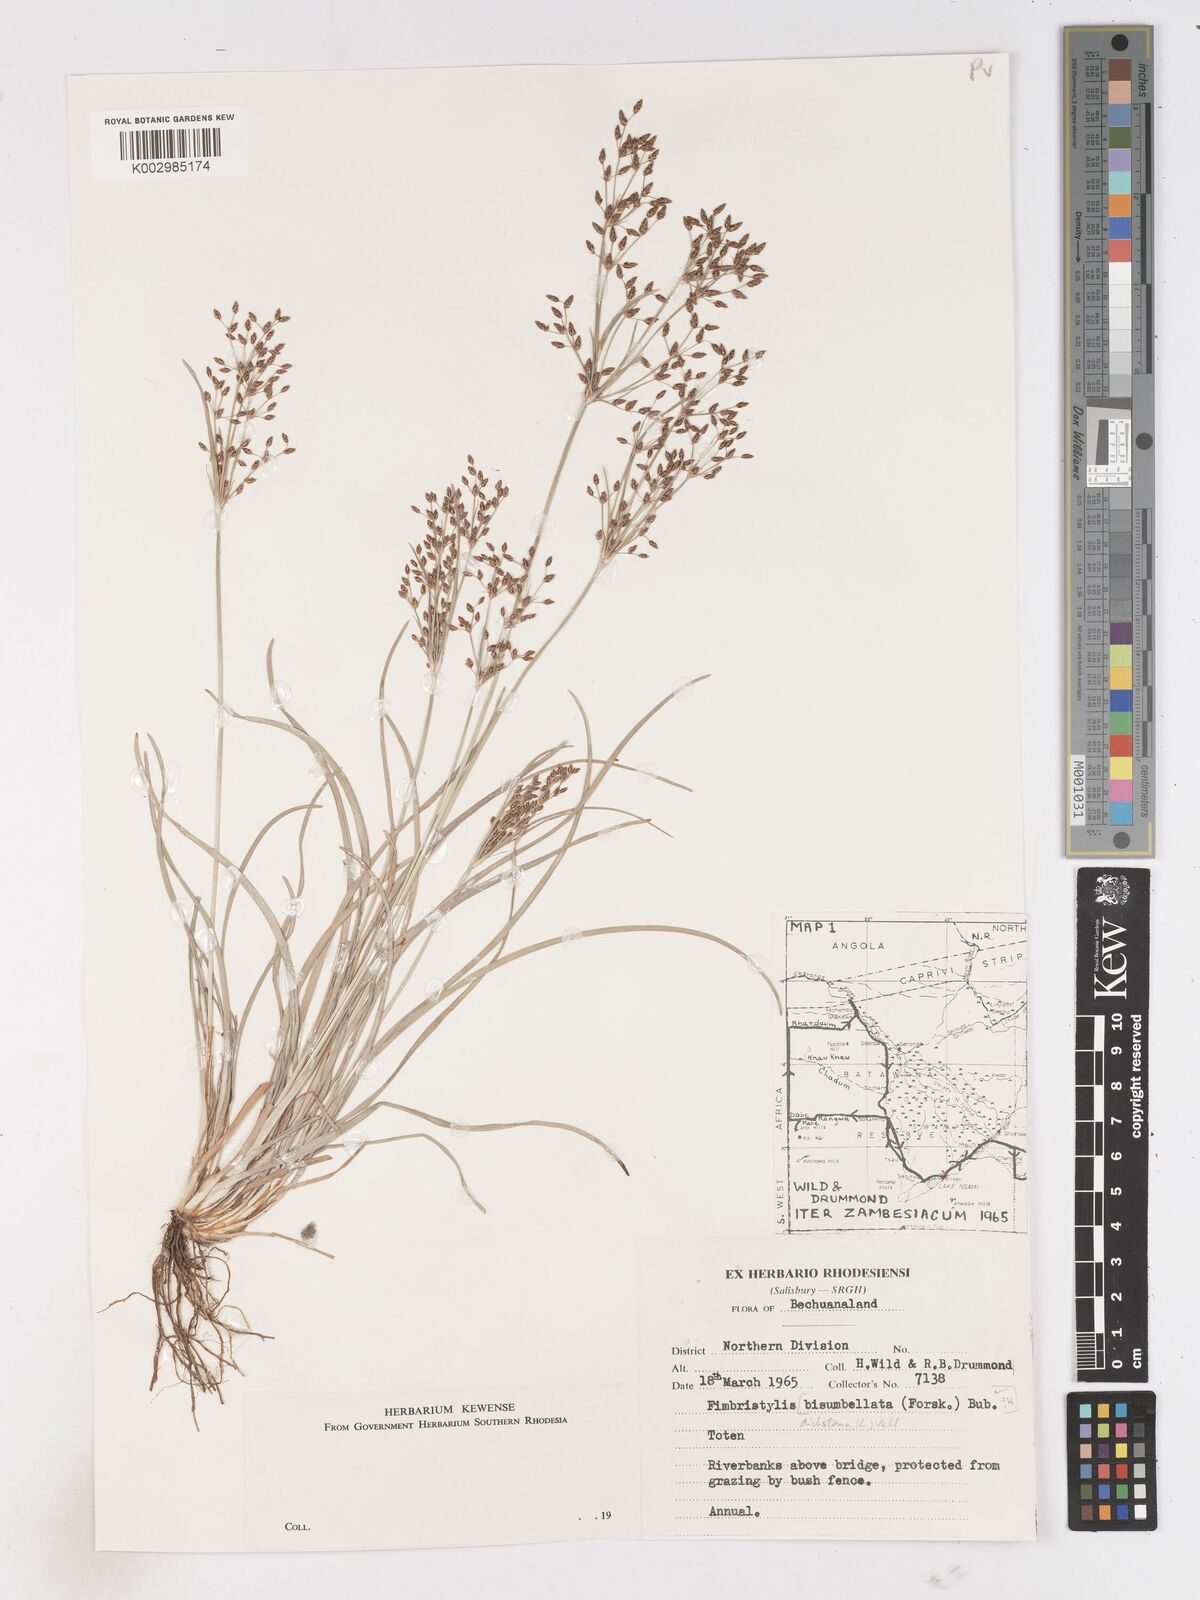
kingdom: Plantae
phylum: Tracheophyta
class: Liliopsida
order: Poales
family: Cyperaceae
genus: Fimbristylis
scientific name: Fimbristylis dichotoma
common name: Forked fimbry
